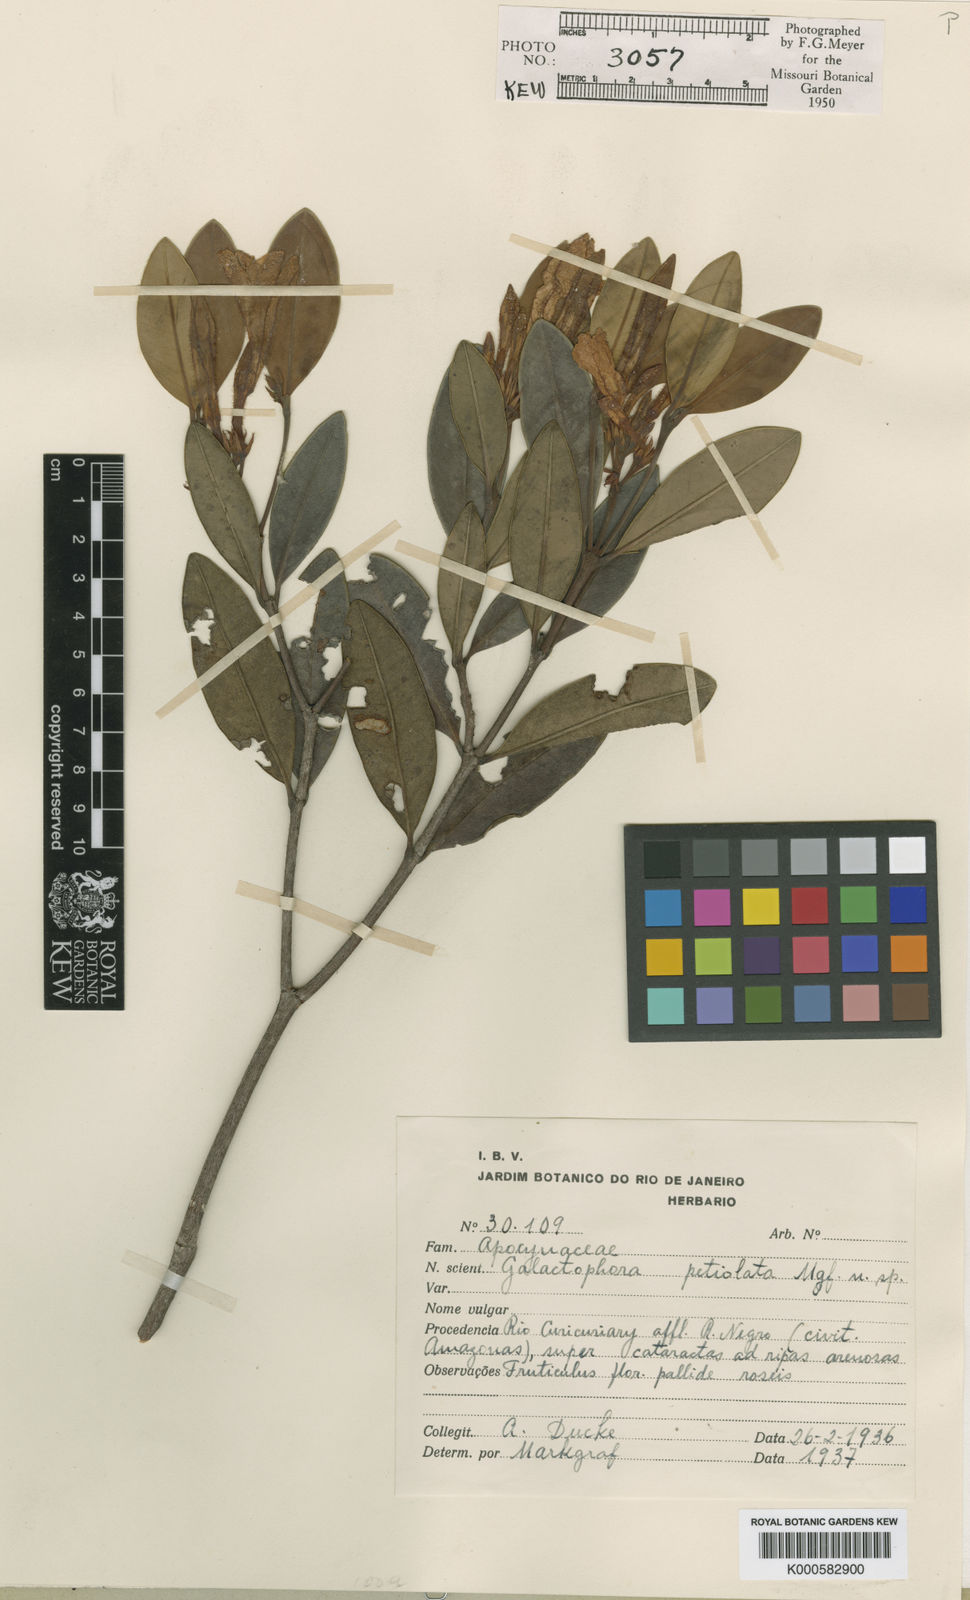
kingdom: Plantae
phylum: Tracheophyta
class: Magnoliopsida
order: Gentianales
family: Apocynaceae
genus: Galactophora
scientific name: Galactophora pulchella
